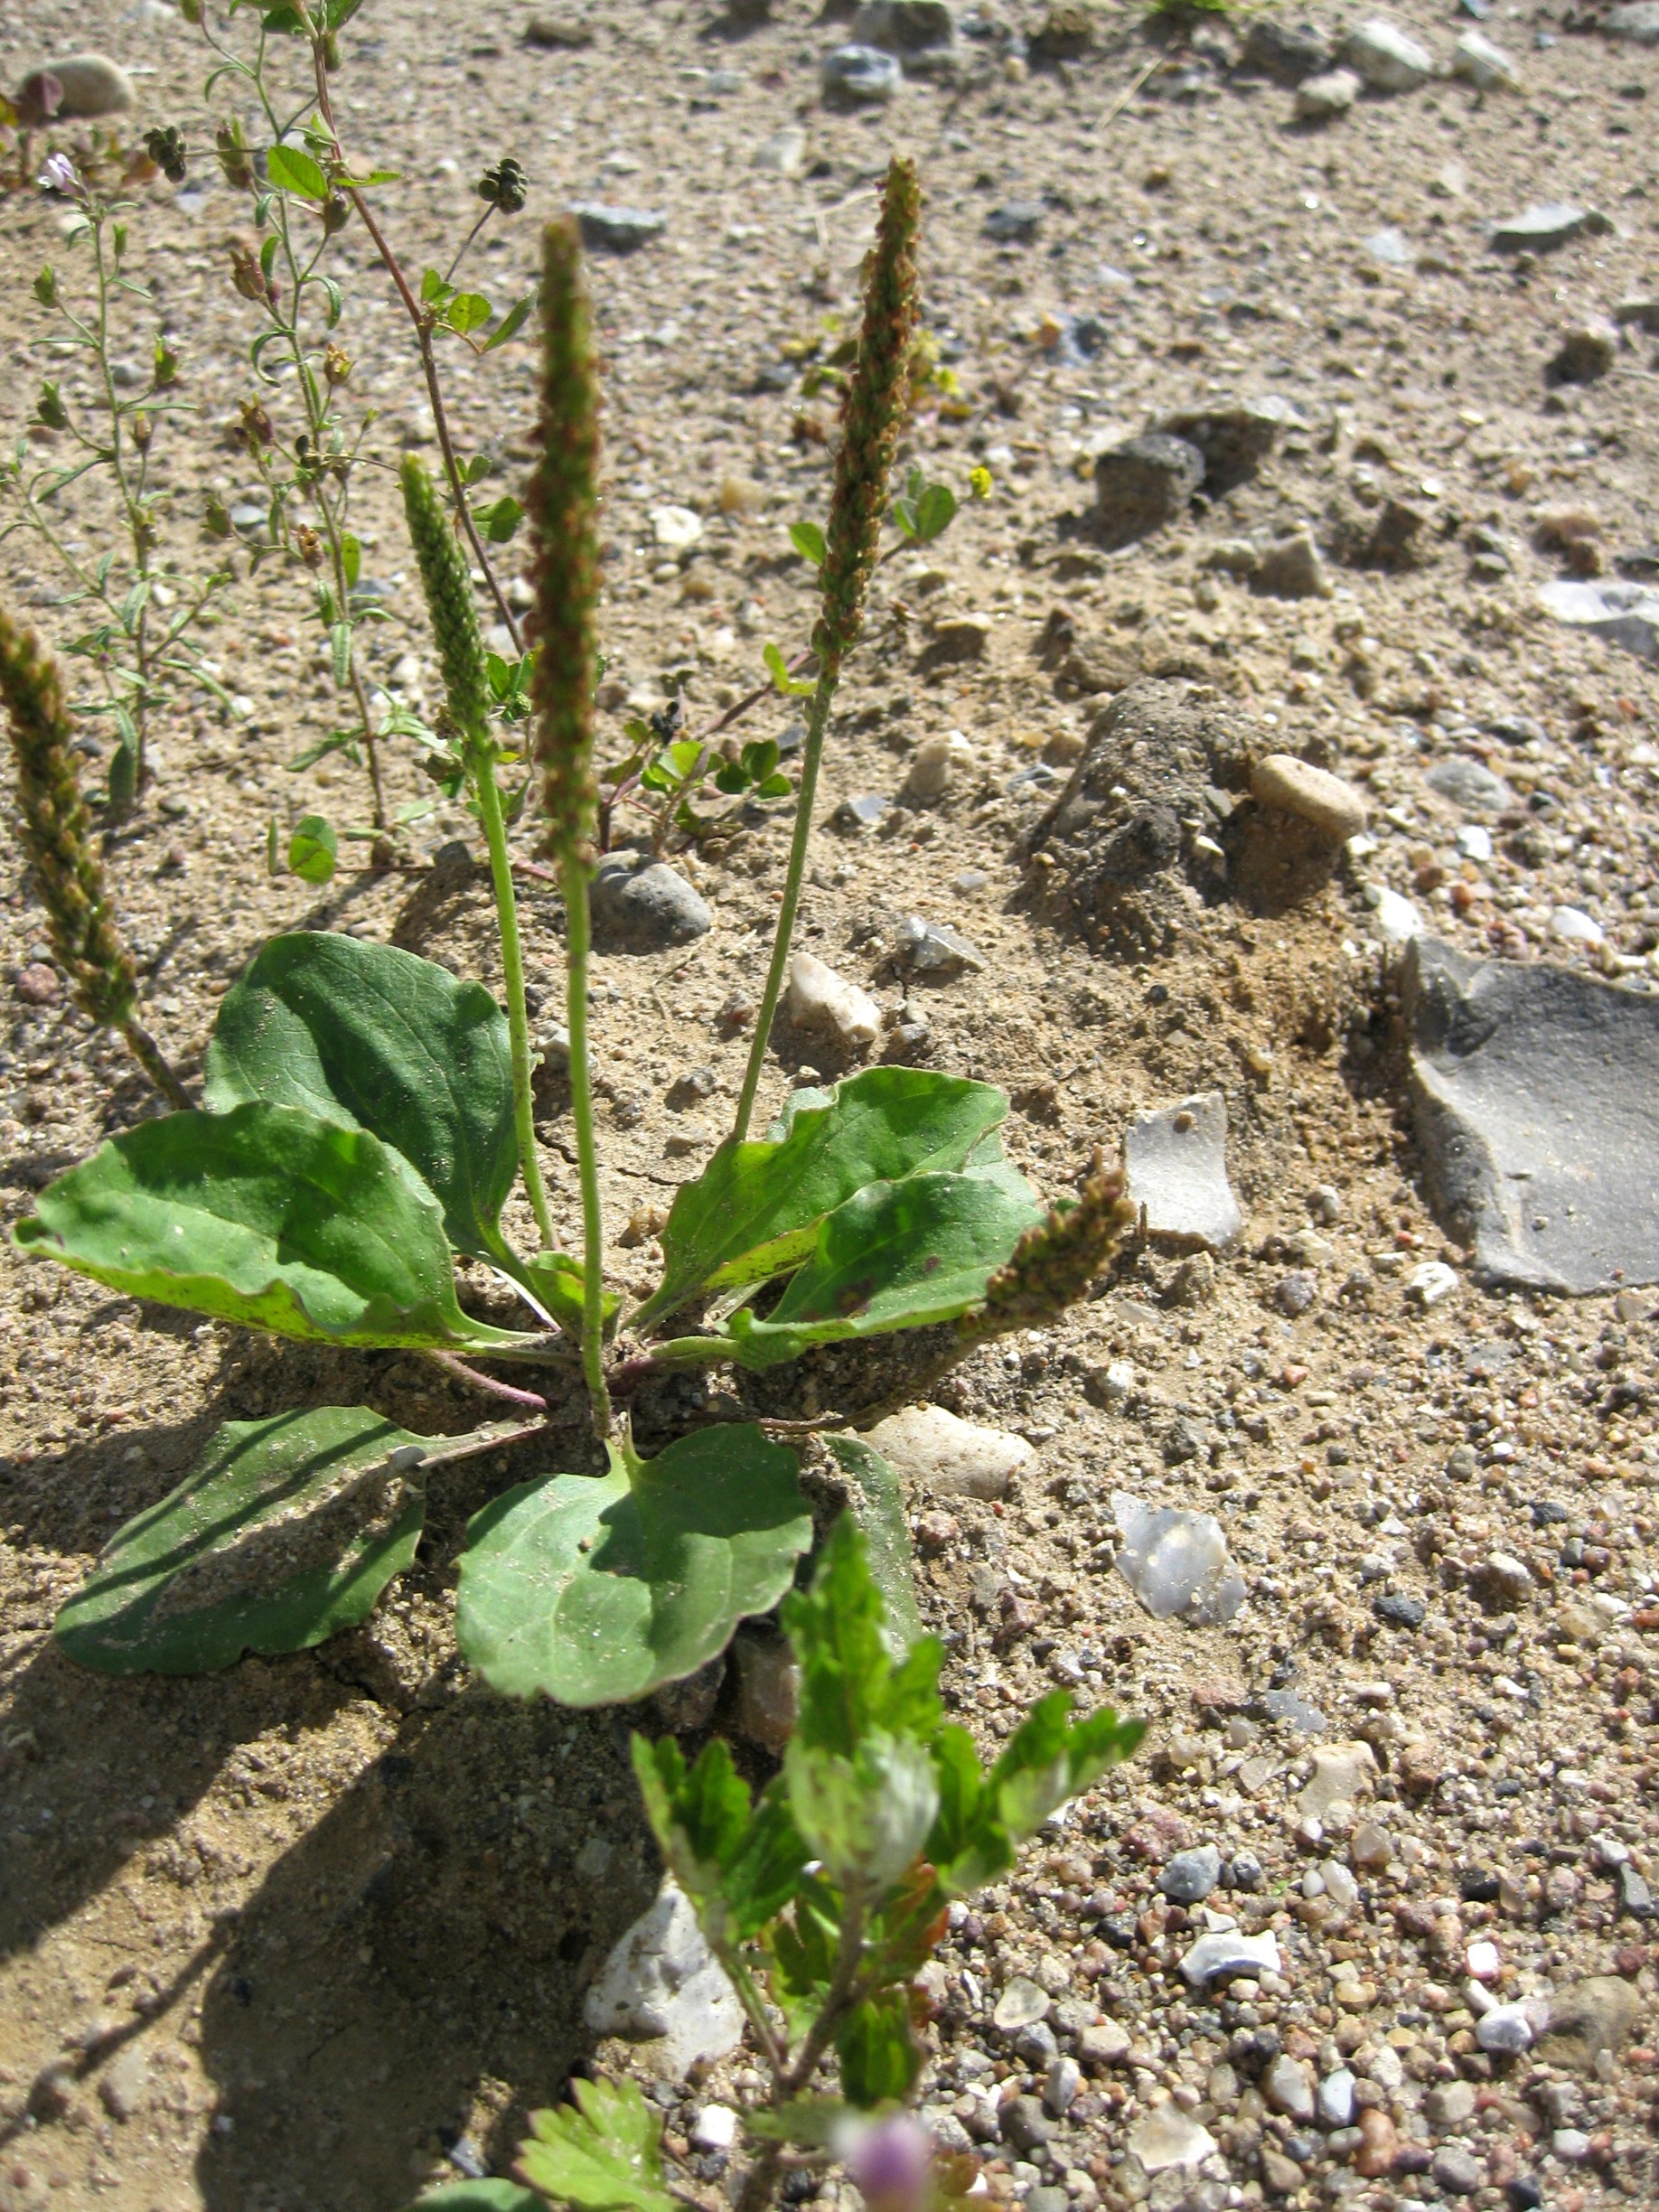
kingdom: Plantae
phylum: Tracheophyta
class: Magnoliopsida
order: Lamiales
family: Plantaginaceae
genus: Plantago
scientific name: Plantago major
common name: Glat vejbred
